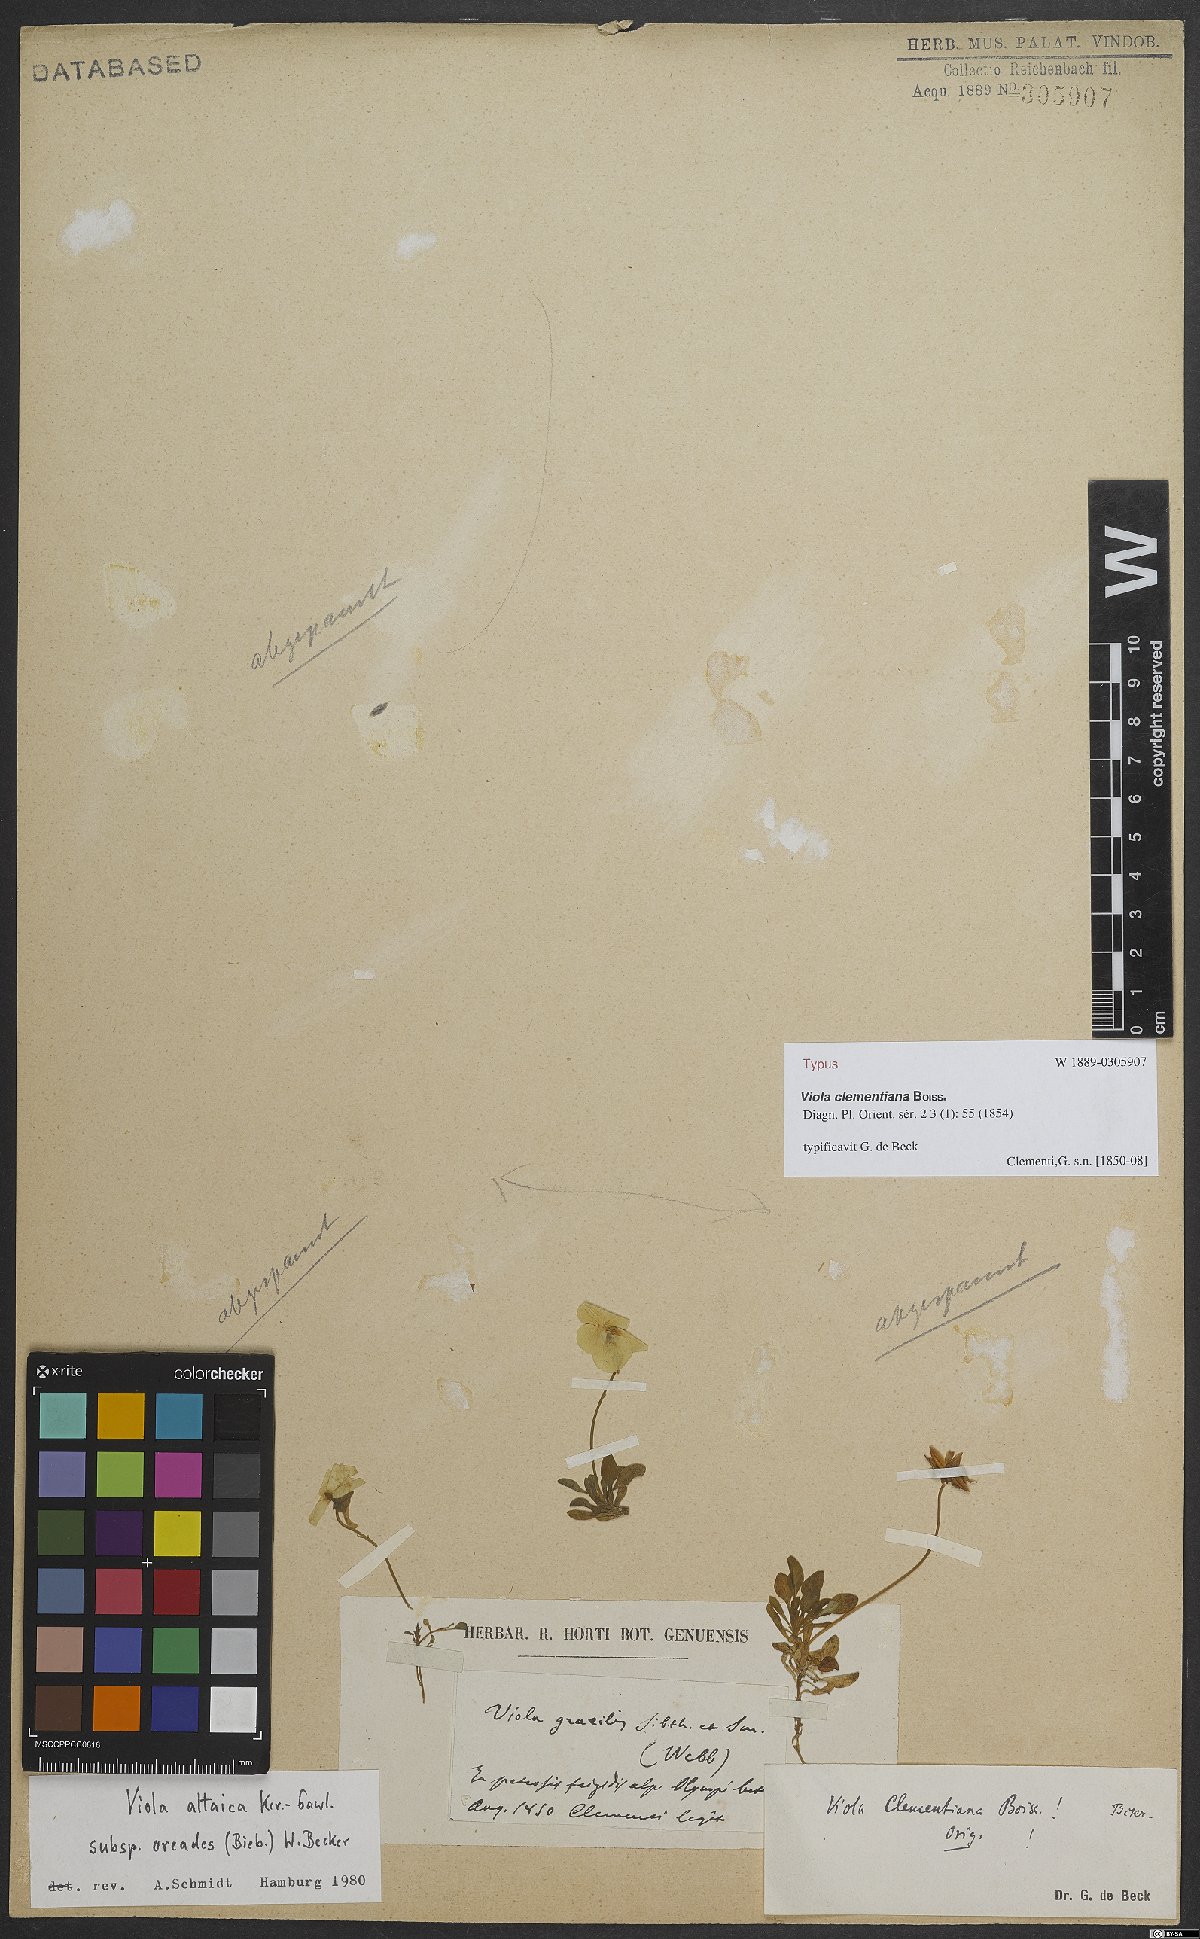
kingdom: Plantae
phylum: Tracheophyta
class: Magnoliopsida
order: Malpighiales
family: Violaceae
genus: Viola
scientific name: Viola oreades
